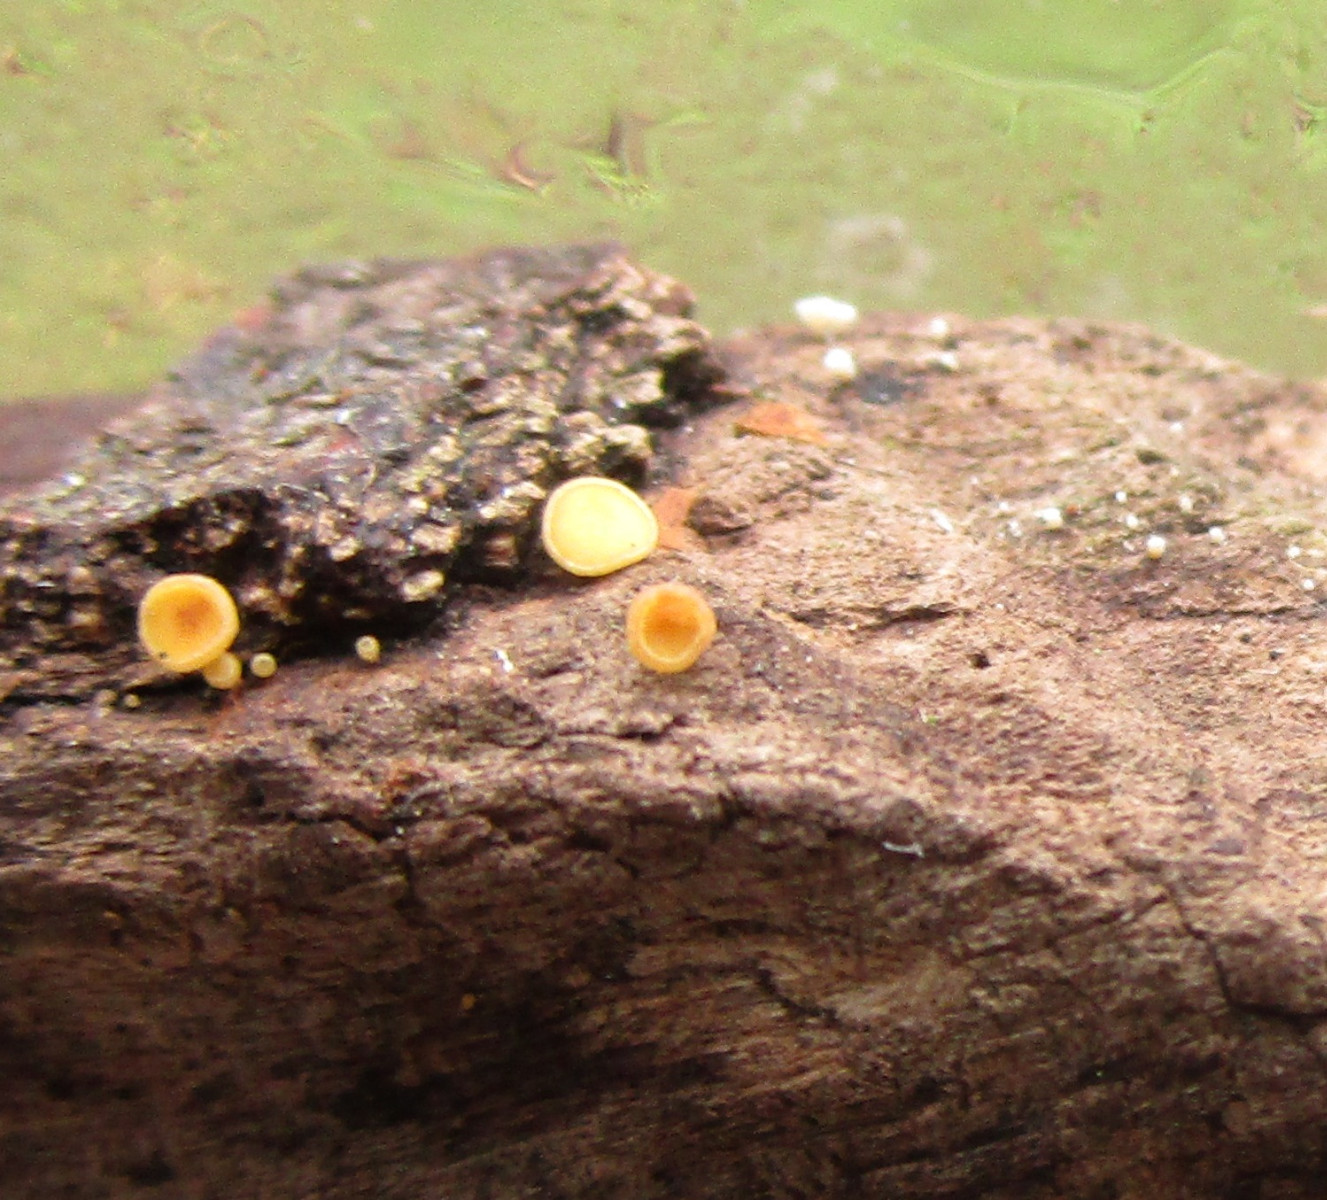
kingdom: Fungi
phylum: Ascomycota
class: Leotiomycetes
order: Helotiales
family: Lachnaceae
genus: Lachnum
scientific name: Lachnum
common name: frynseskive
